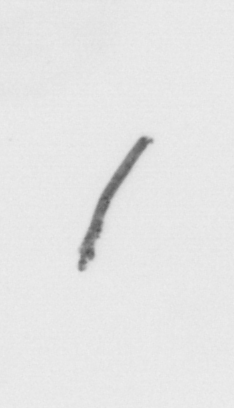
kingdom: Chromista
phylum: Ochrophyta
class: Bacillariophyceae
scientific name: Bacillariophyceae
